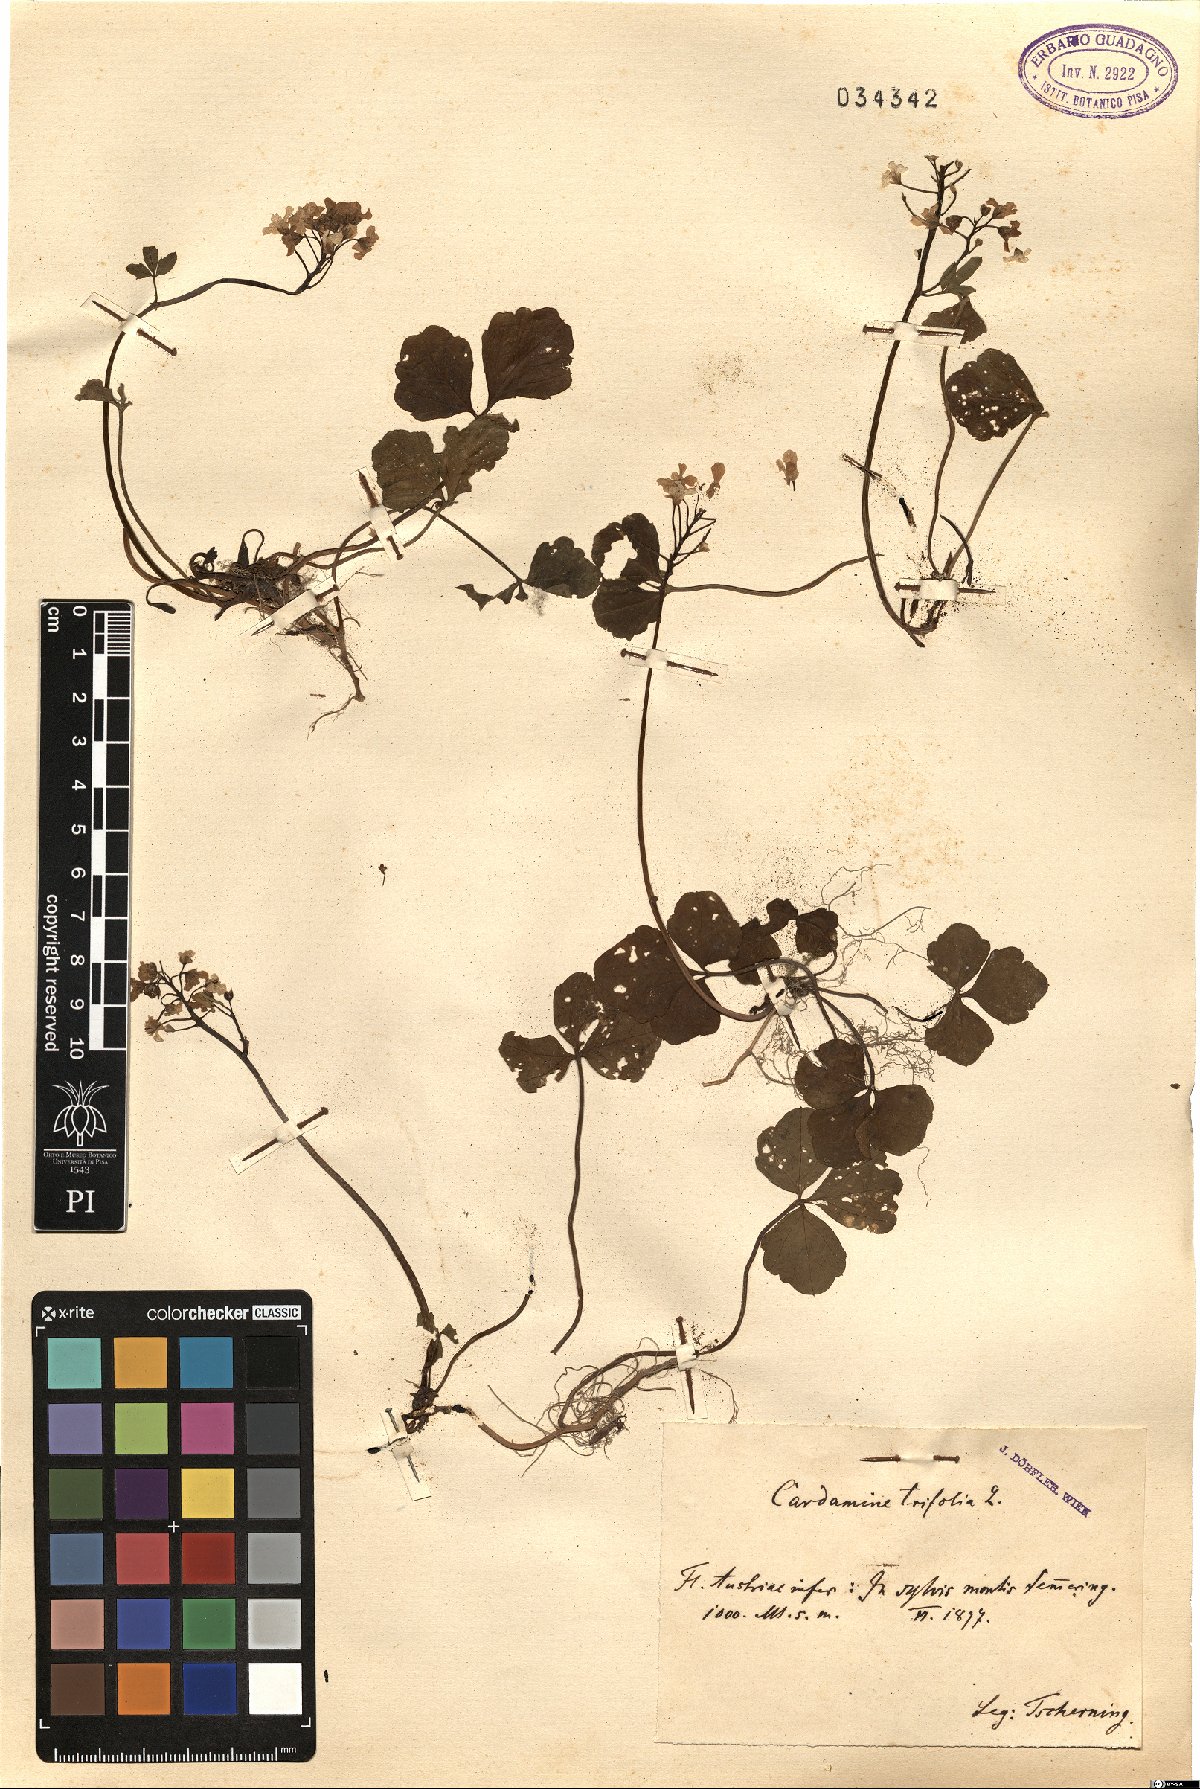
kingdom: Plantae
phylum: Tracheophyta
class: Magnoliopsida
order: Brassicales
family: Brassicaceae
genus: Cardamine
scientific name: Cardamine trifolia
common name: Trefoil cress
